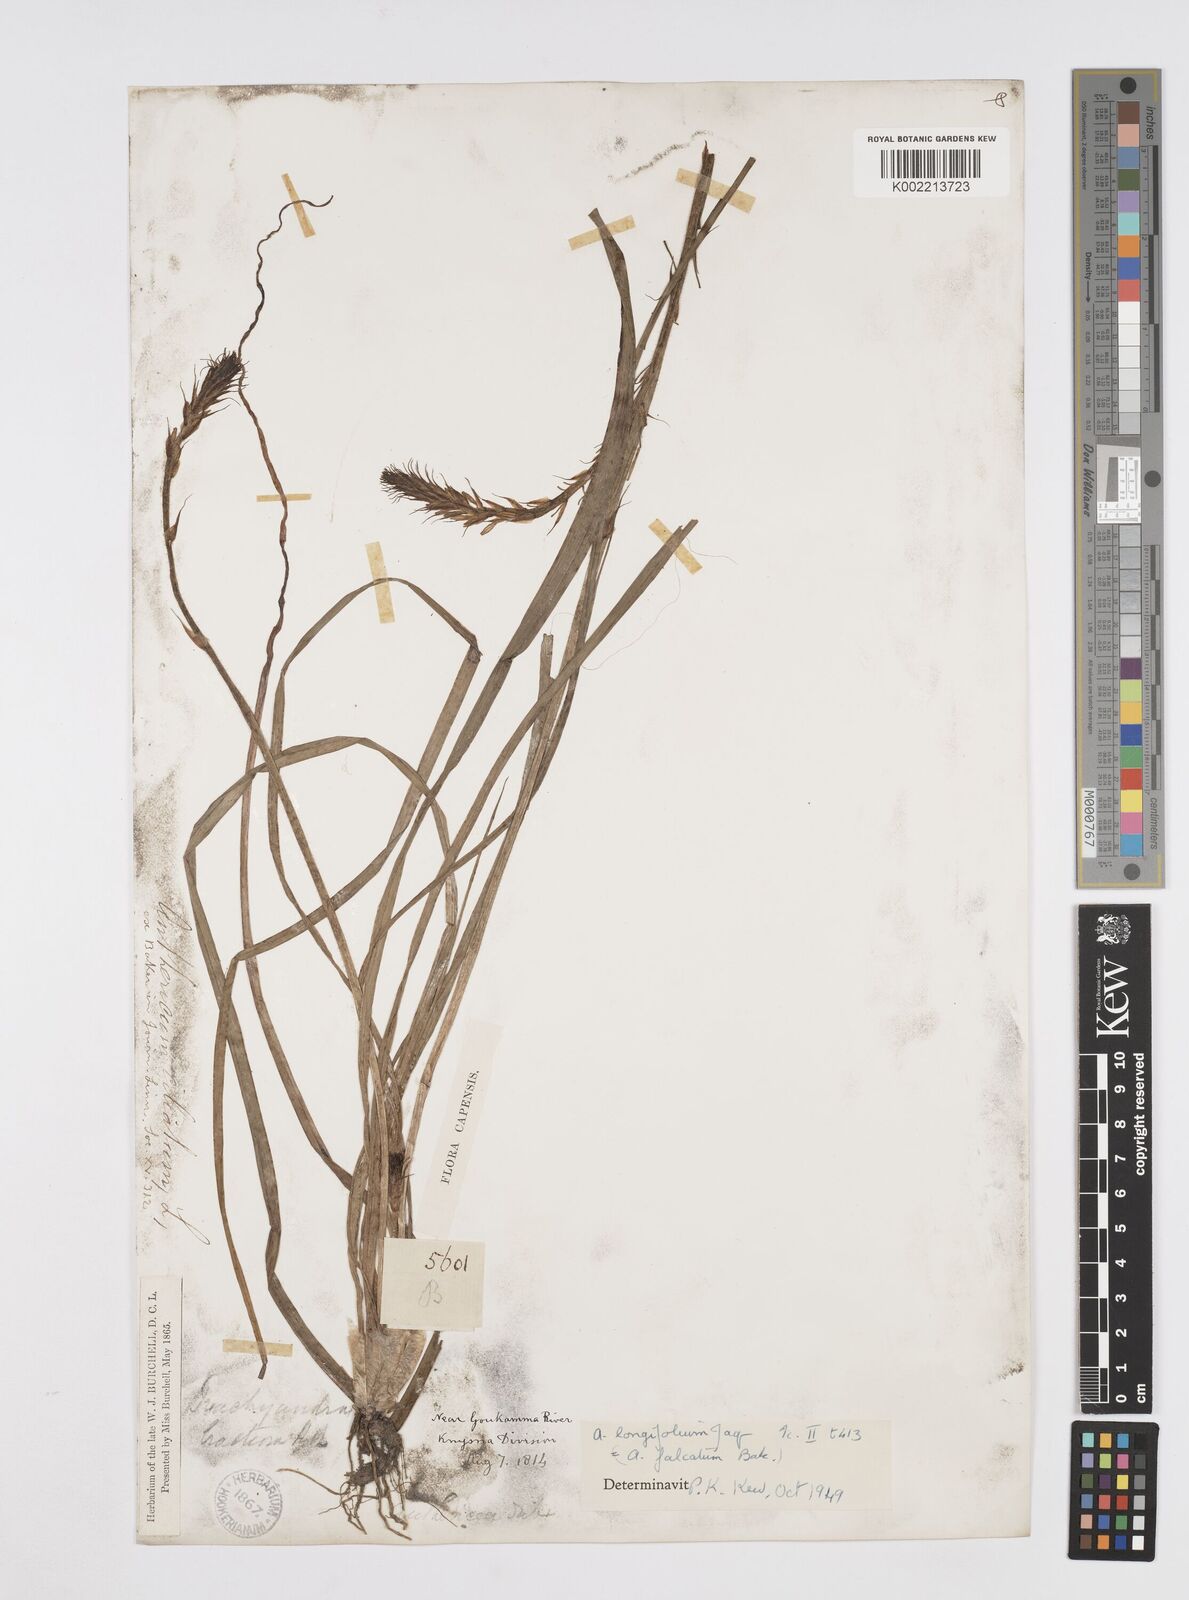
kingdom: Plantae
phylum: Tracheophyta
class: Liliopsida
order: Asparagales
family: Asphodelaceae
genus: Trachyandra
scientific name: Trachyandra ciliata
